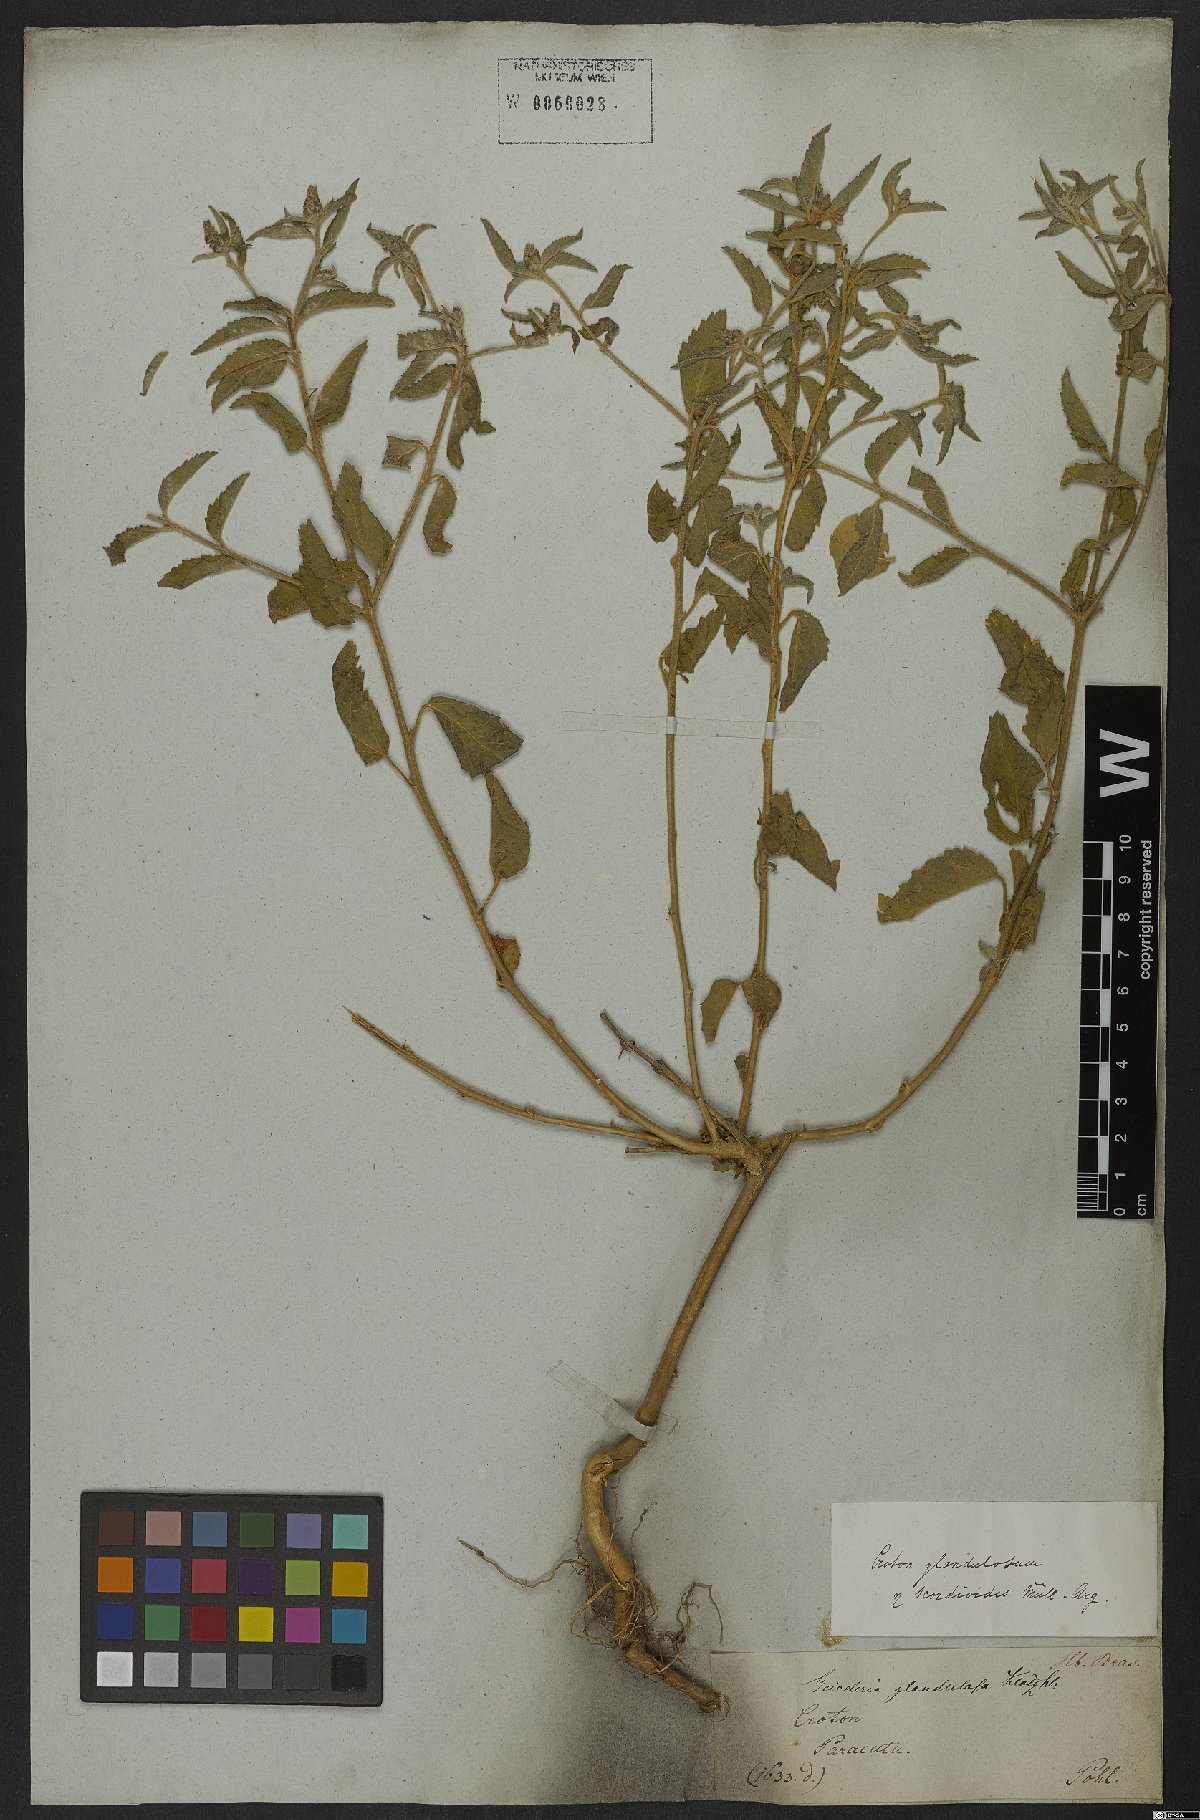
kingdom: Plantae
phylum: Tracheophyta
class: Magnoliopsida
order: Malpighiales
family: Euphorbiaceae
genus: Croton
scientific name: Croton glandulosus
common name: Tropic croton
